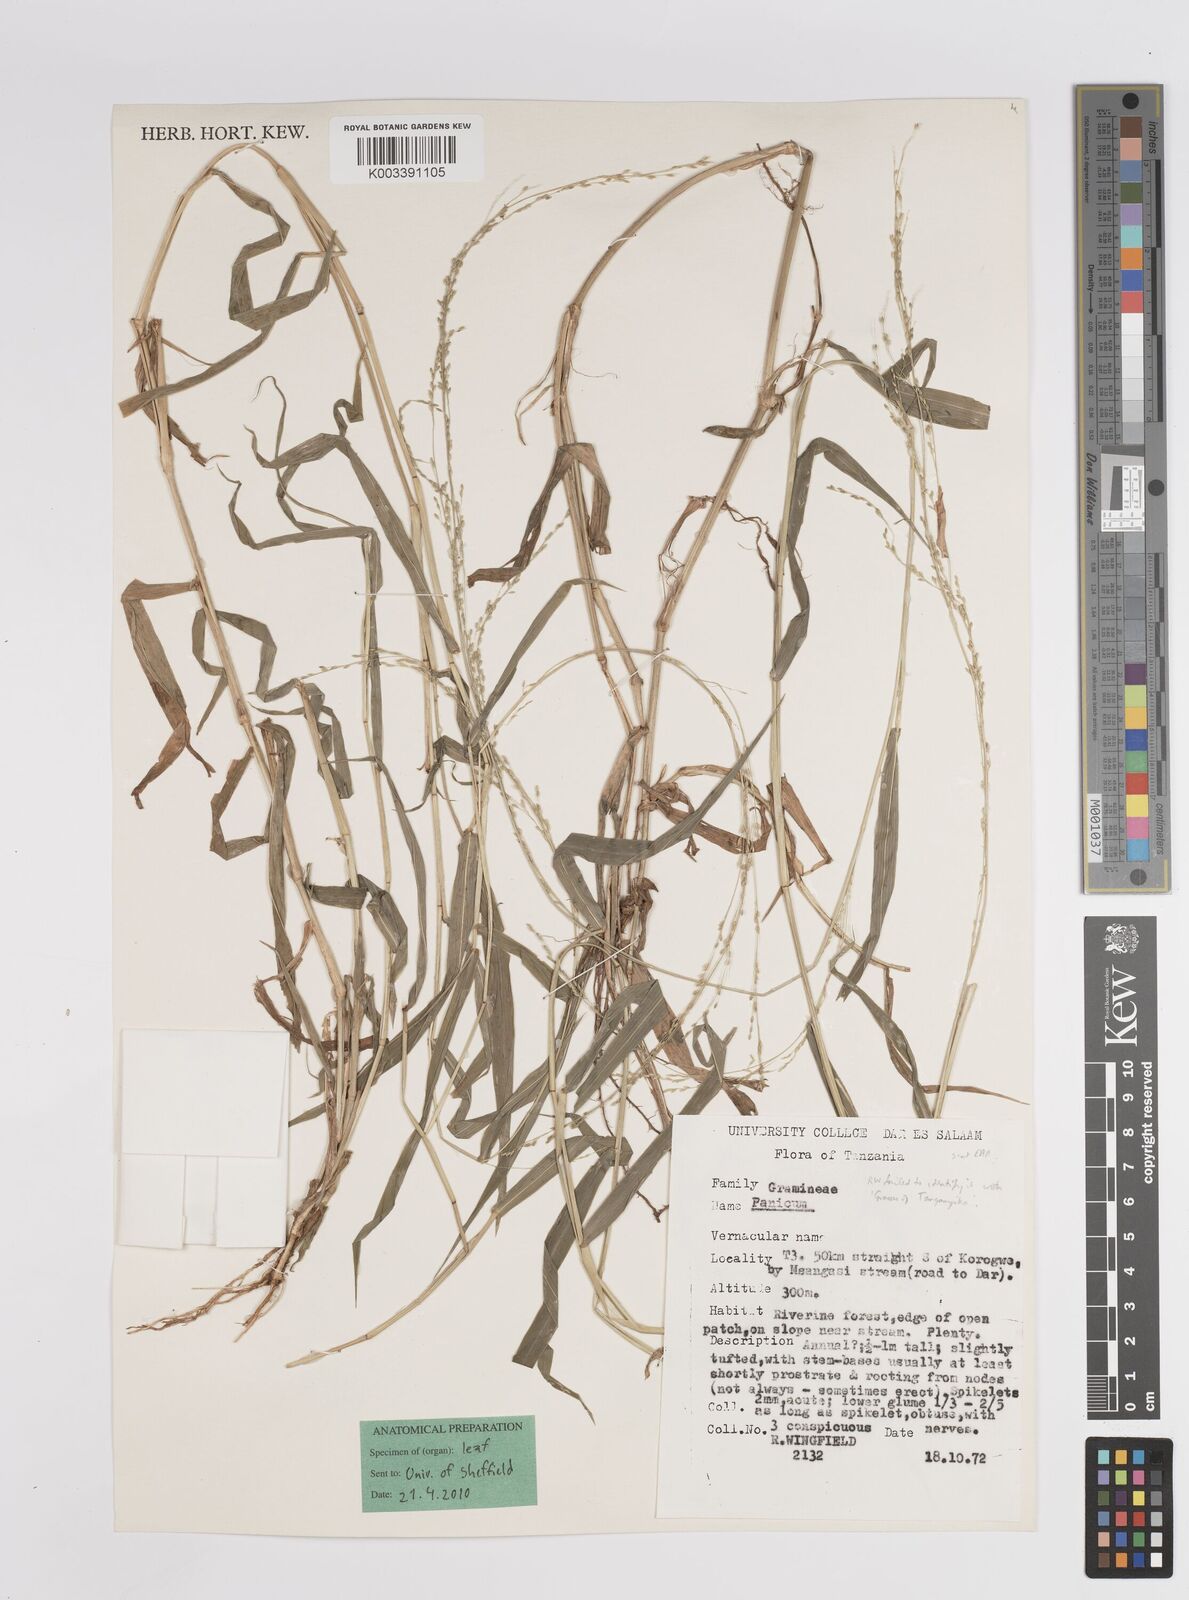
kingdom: Plantae
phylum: Tracheophyta
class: Liliopsida
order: Poales
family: Poaceae
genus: Panicum
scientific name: Panicum nudiflorum
